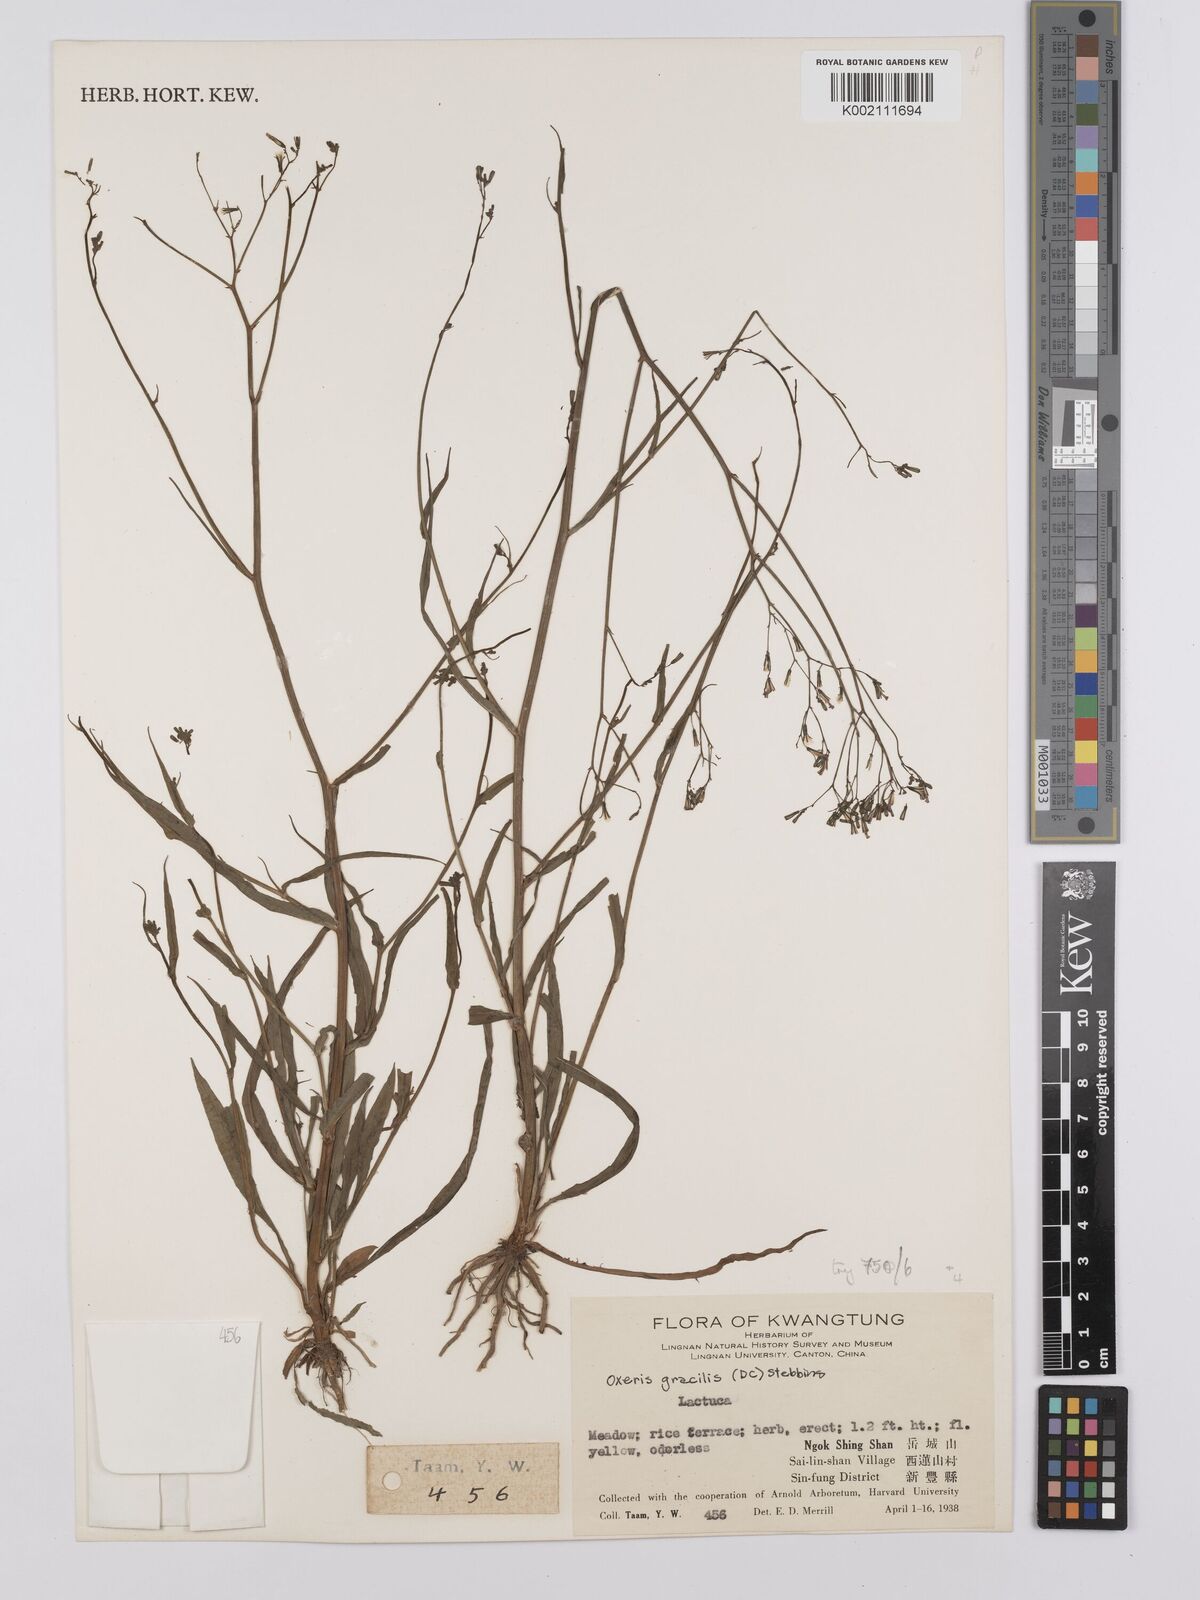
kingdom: Plantae
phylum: Tracheophyta
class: Magnoliopsida
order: Asterales
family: Asteraceae
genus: Ixeridium
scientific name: Ixeridium
